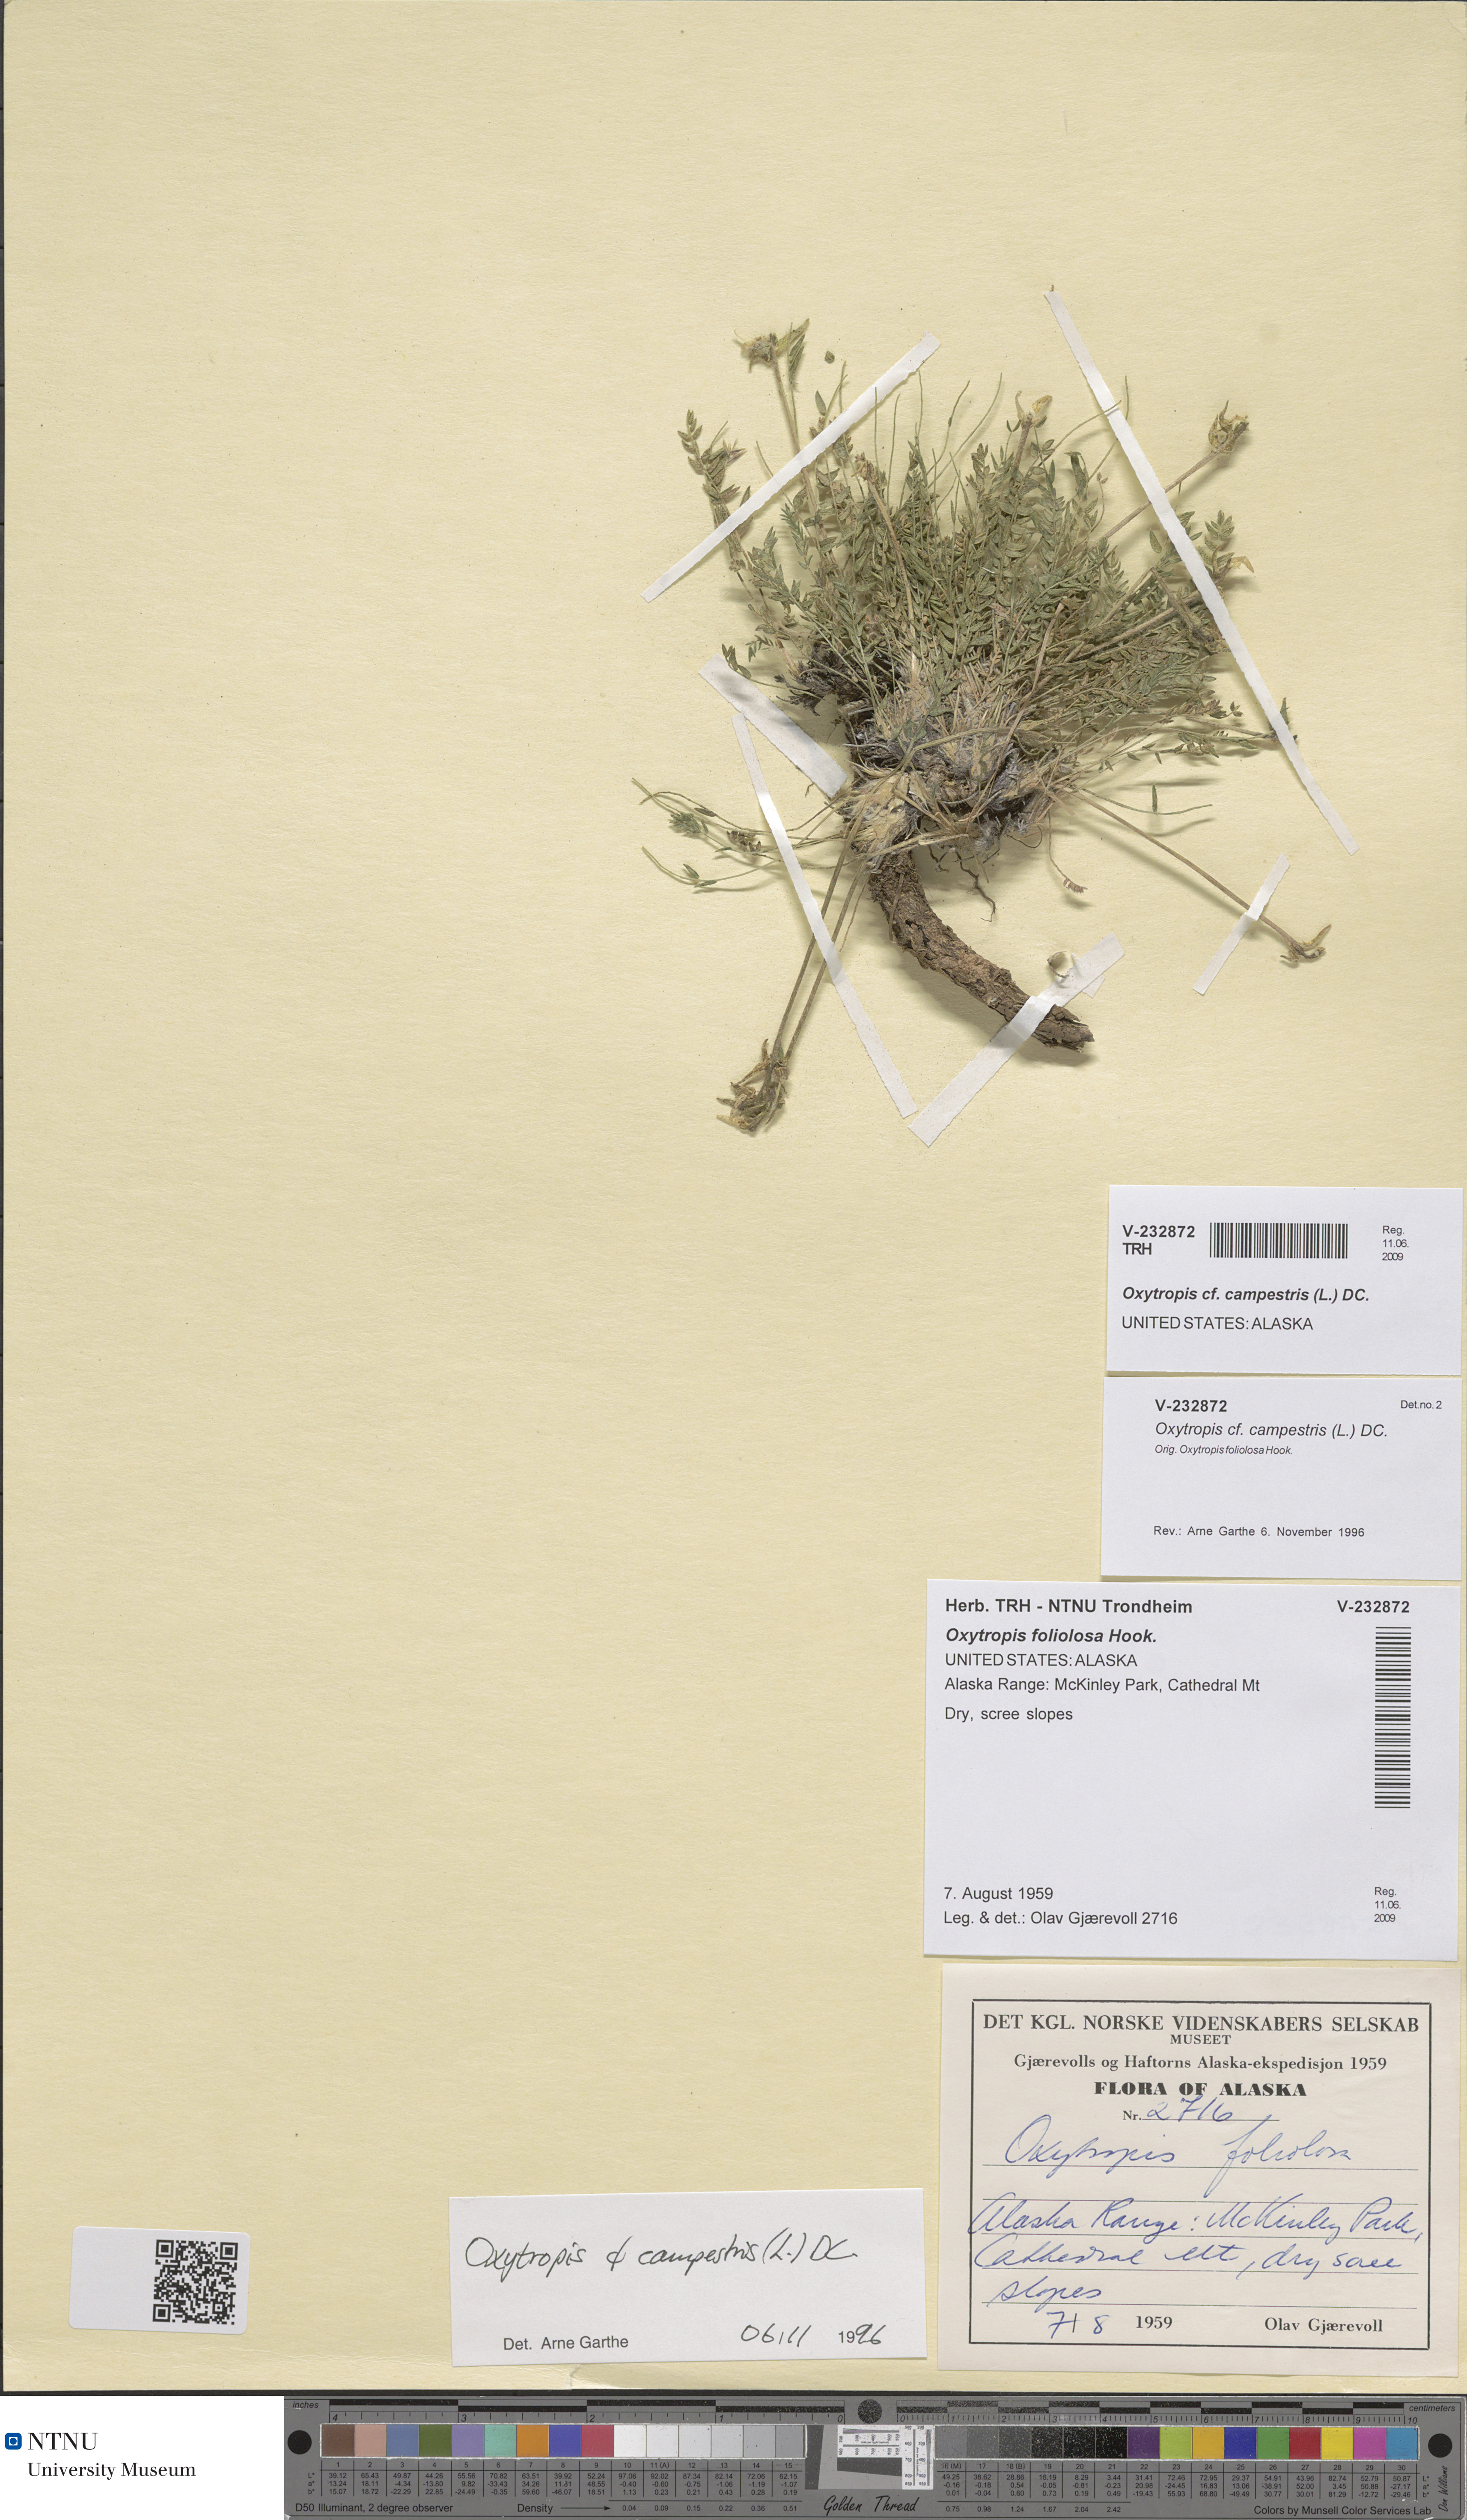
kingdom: Plantae
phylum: Tracheophyta
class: Magnoliopsida
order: Fabales
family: Fabaceae
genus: Oxytropis
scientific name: Oxytropis campestris
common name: Field locoweed
